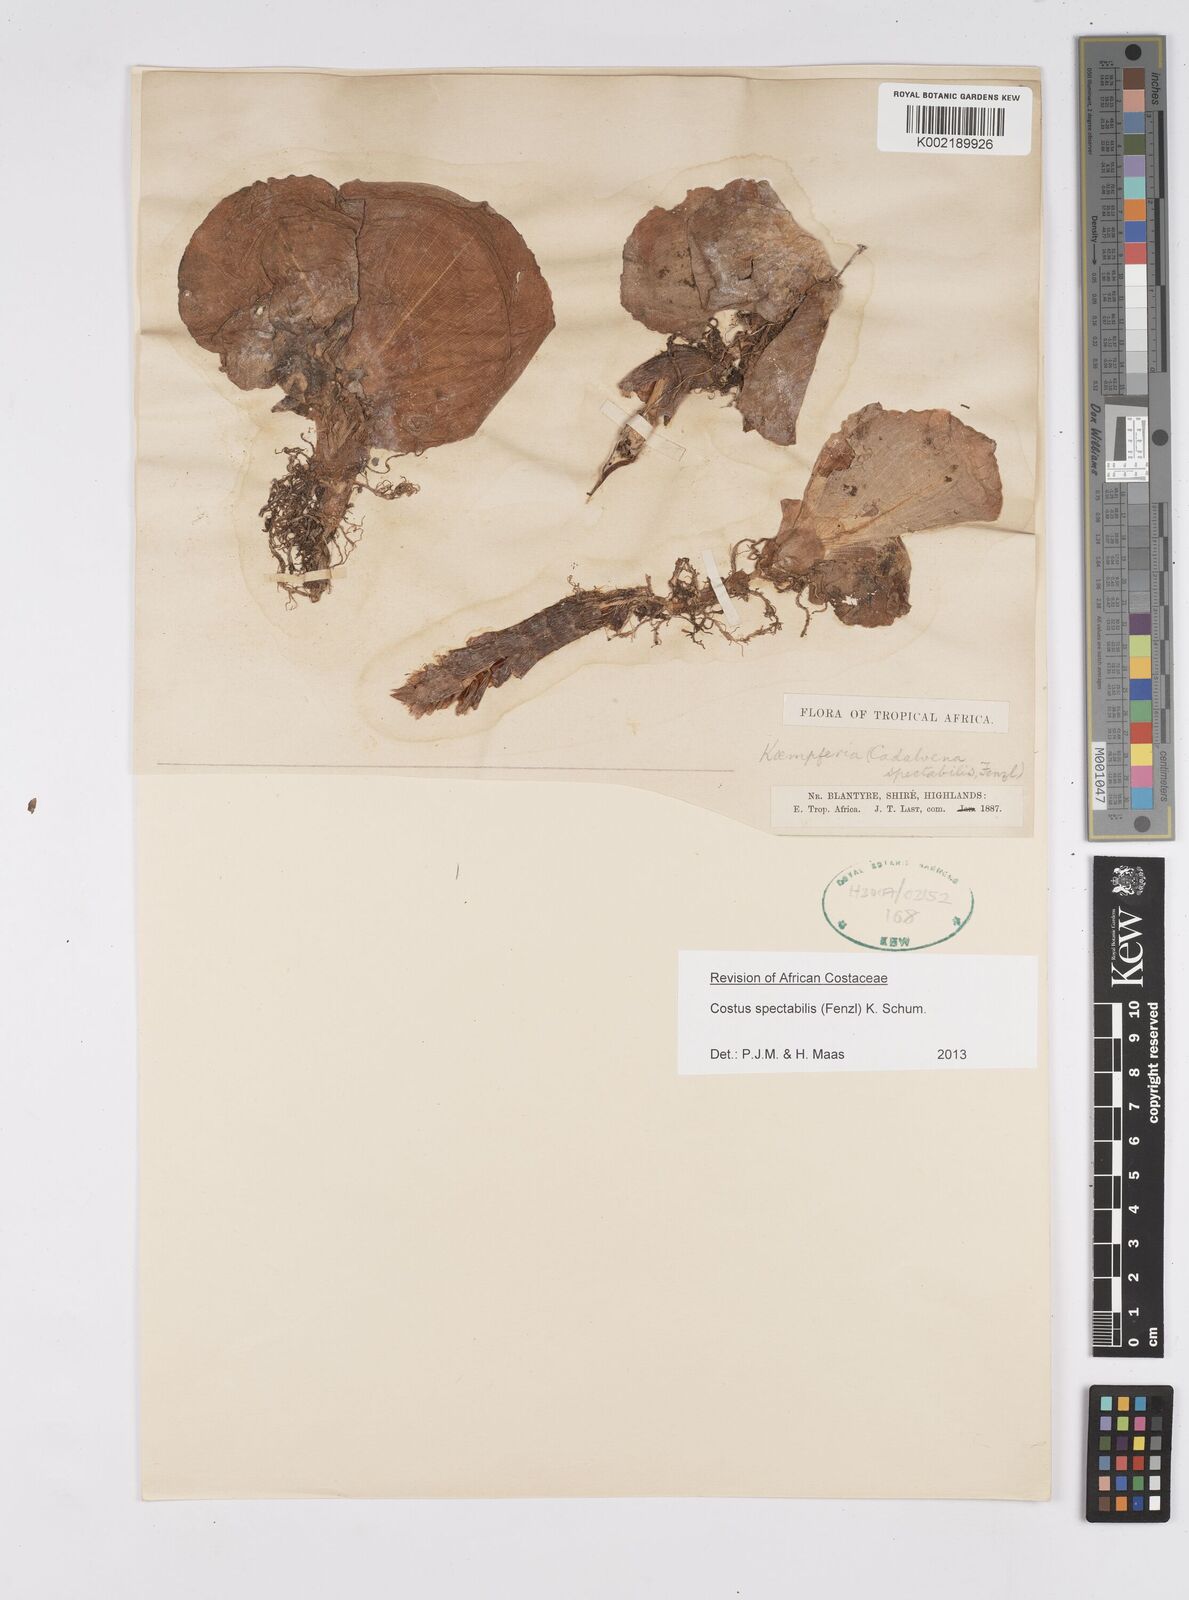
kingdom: Plantae
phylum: Tracheophyta
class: Liliopsida
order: Zingiberales
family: Costaceae
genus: Costus
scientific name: Costus spectabilis
